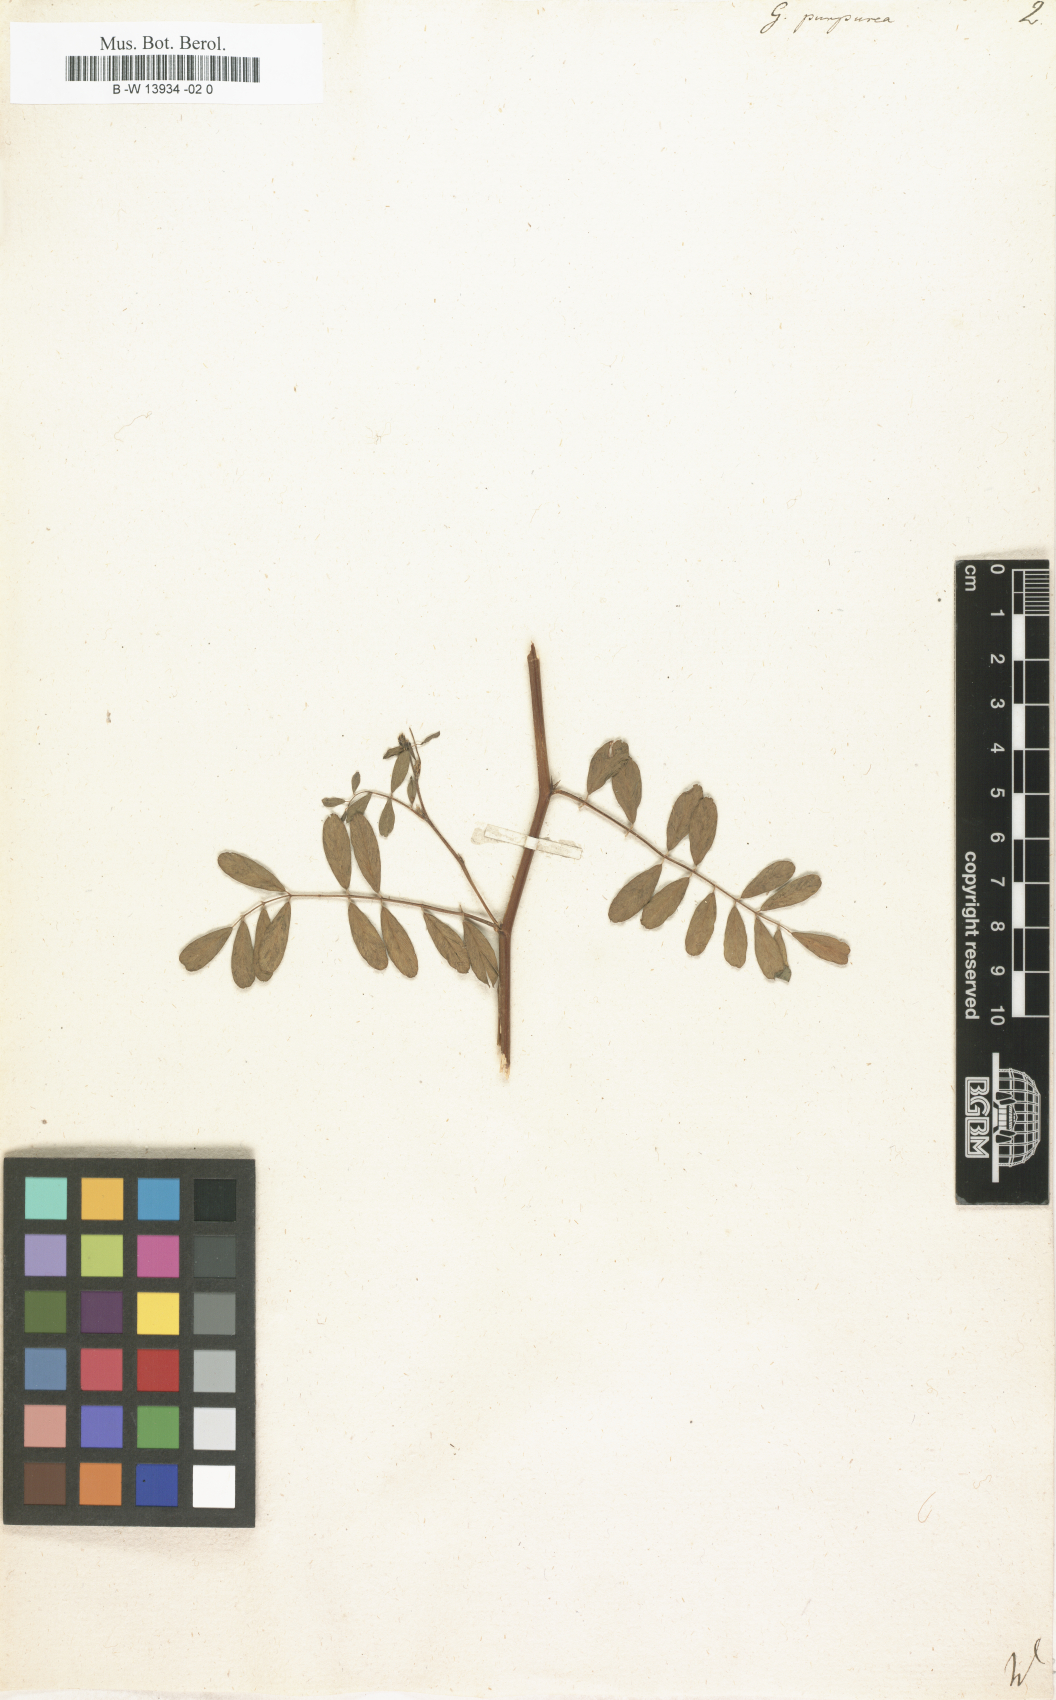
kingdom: Plantae
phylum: Tracheophyta
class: Magnoliopsida
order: Fabales
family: Fabaceae
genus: Tephrosia
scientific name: Tephrosia purpurea
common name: Fishpoison
